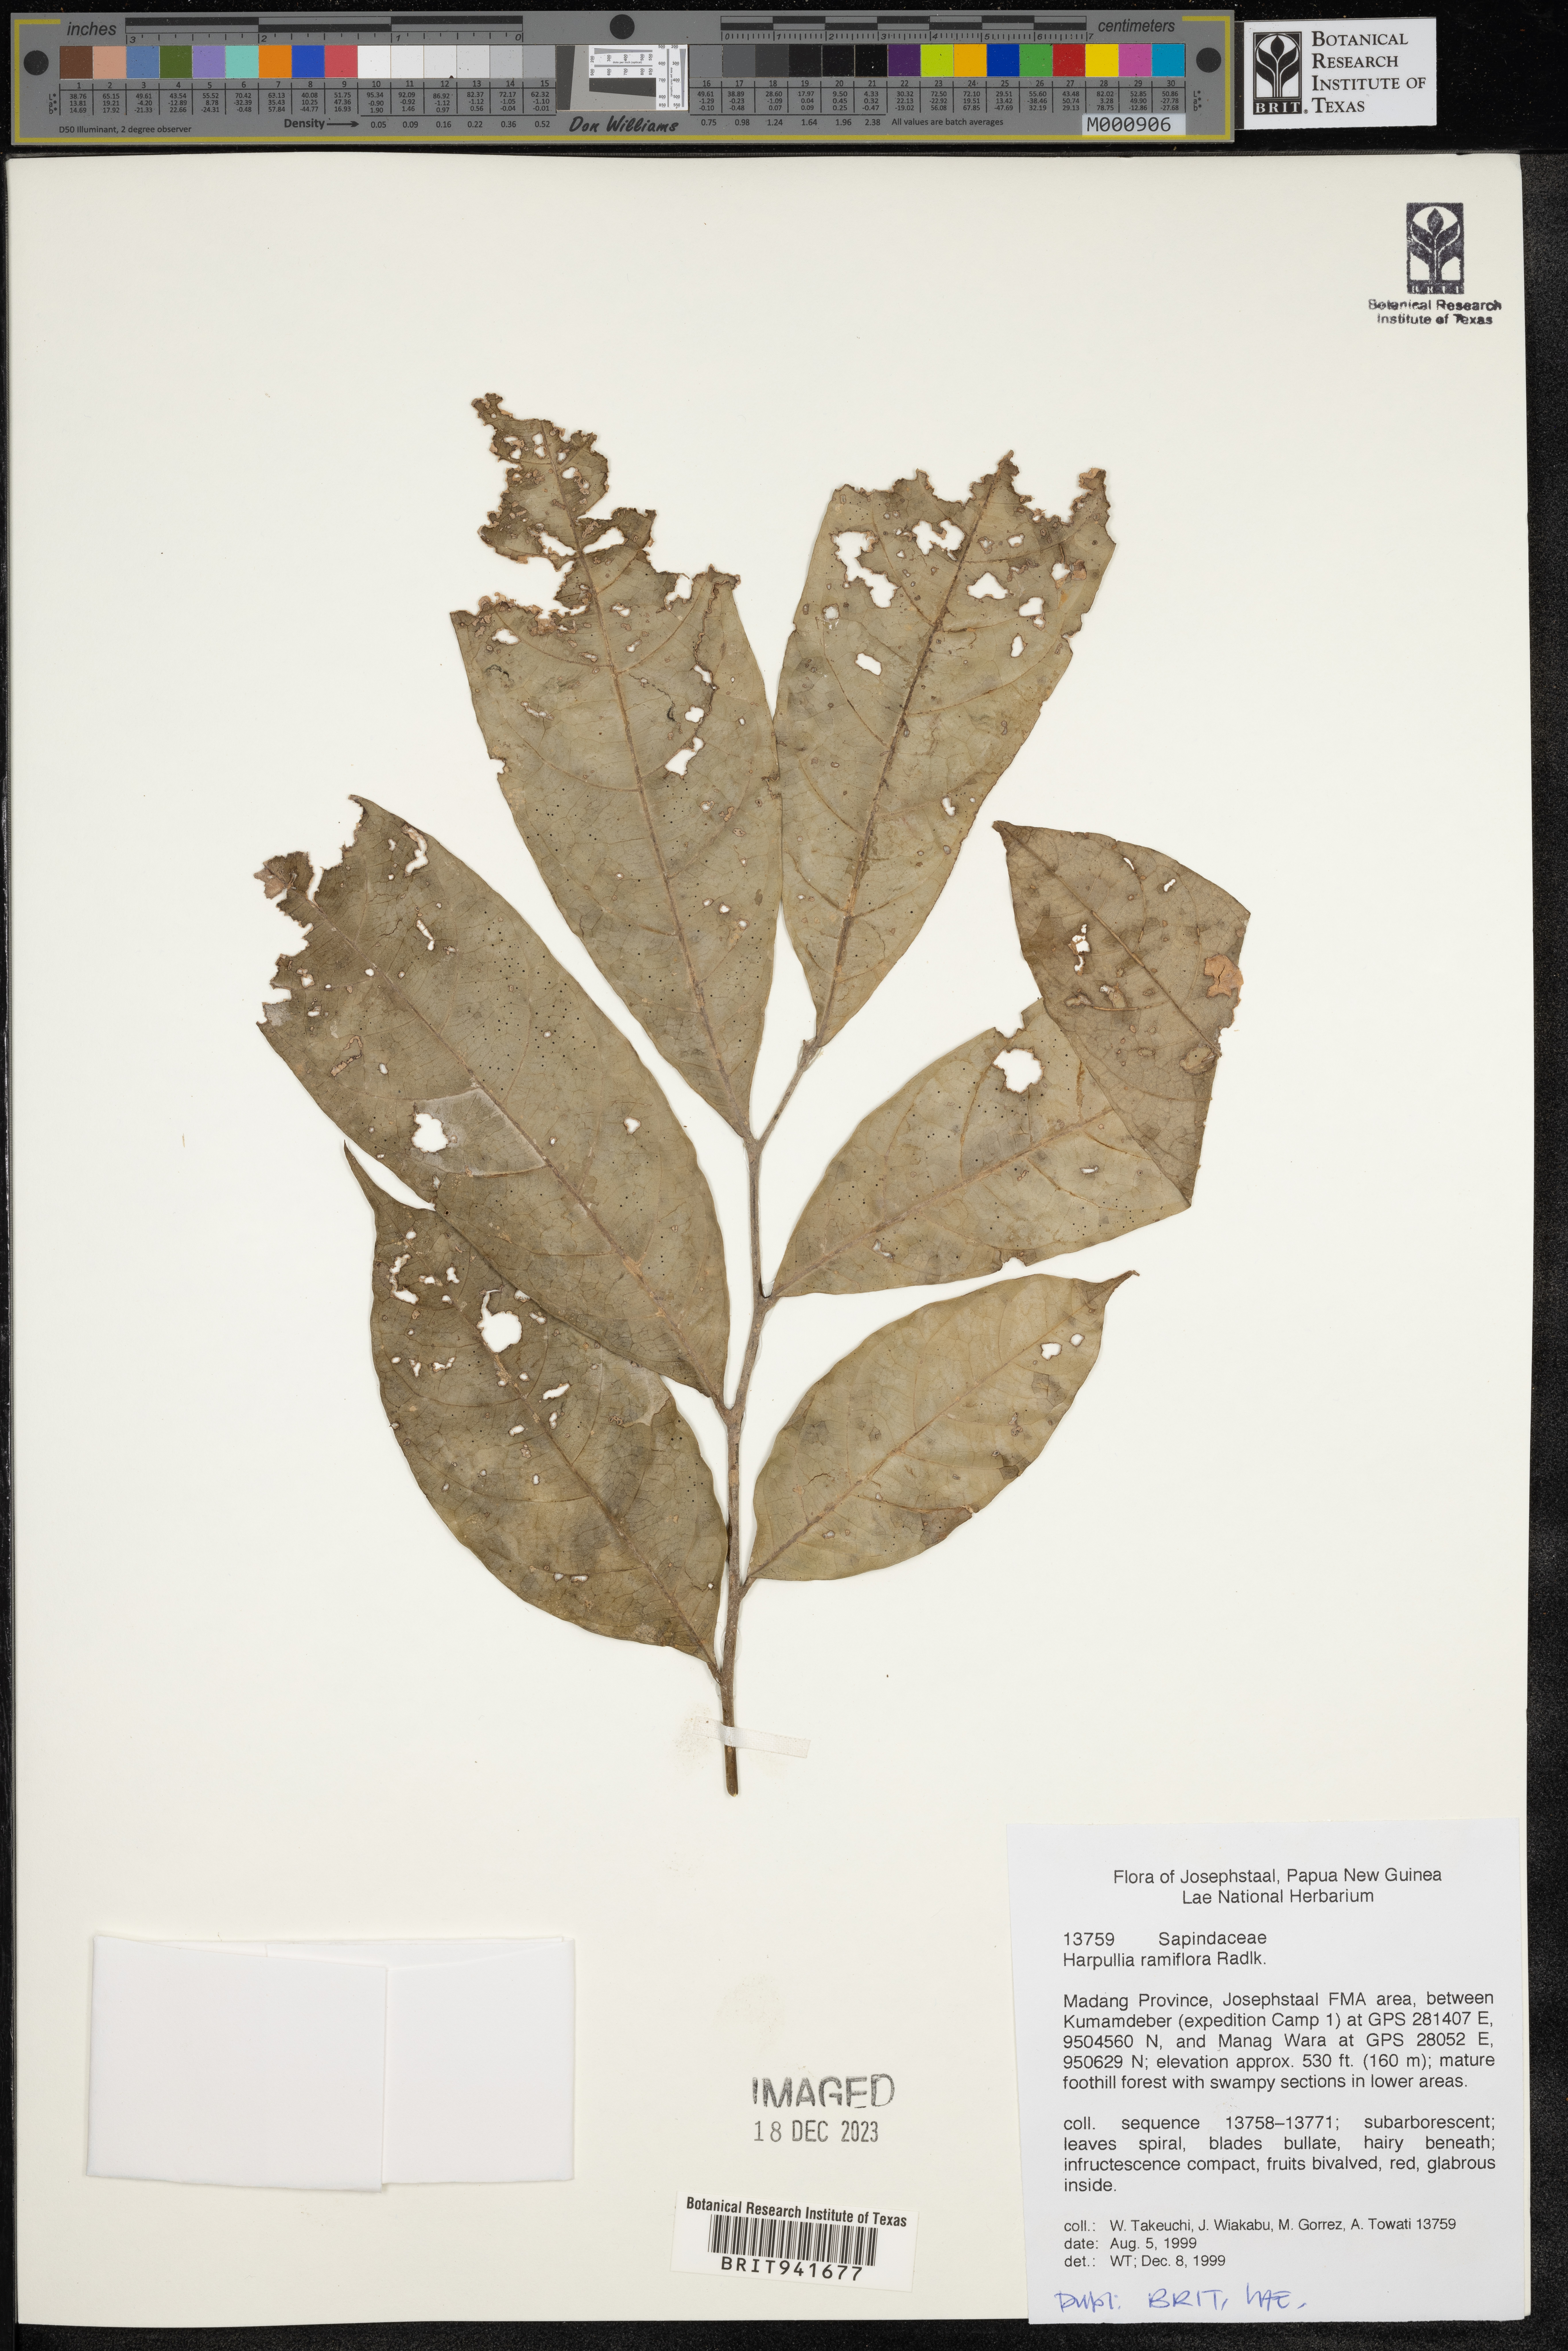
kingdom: Plantae
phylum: Tracheophyta
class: Magnoliopsida
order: Sapindales
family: Sapindaceae
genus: Harpullia
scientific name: Harpullia
